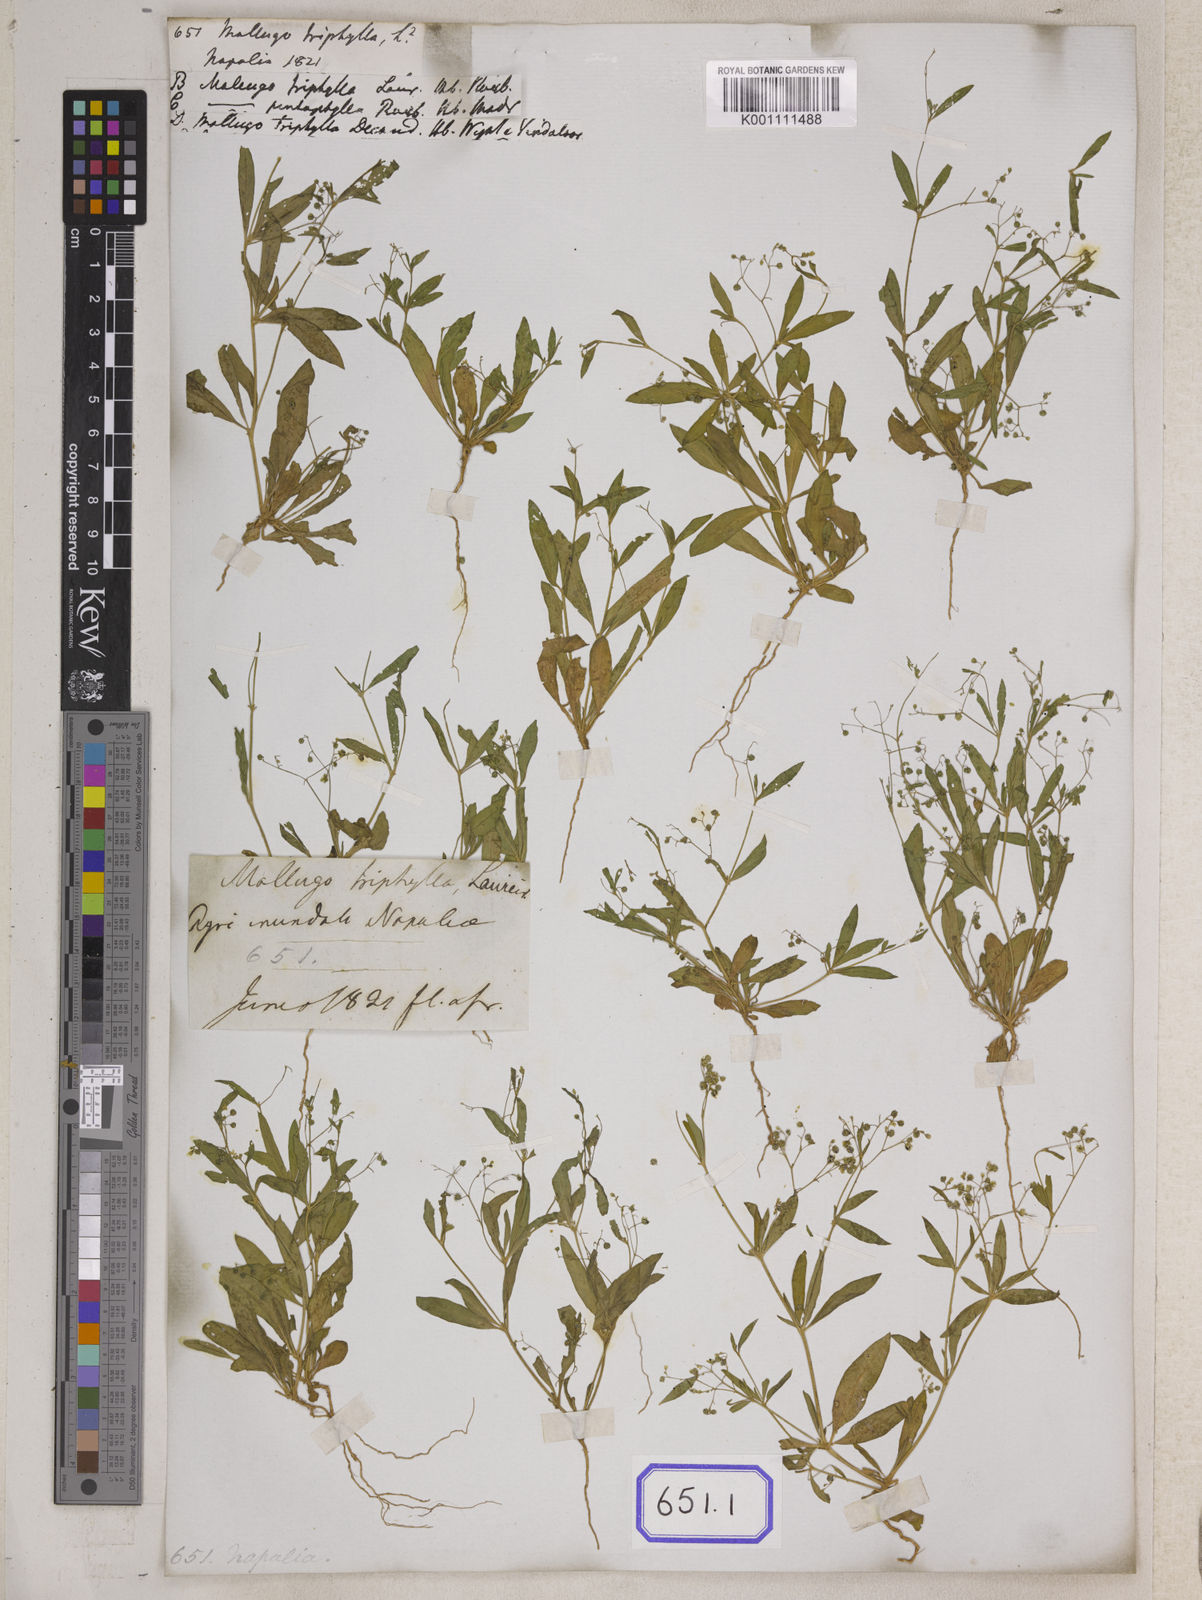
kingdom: Plantae
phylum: Tracheophyta
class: Magnoliopsida
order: Caryophyllales
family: Molluginaceae
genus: Trigastrotheca
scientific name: Trigastrotheca stricta
